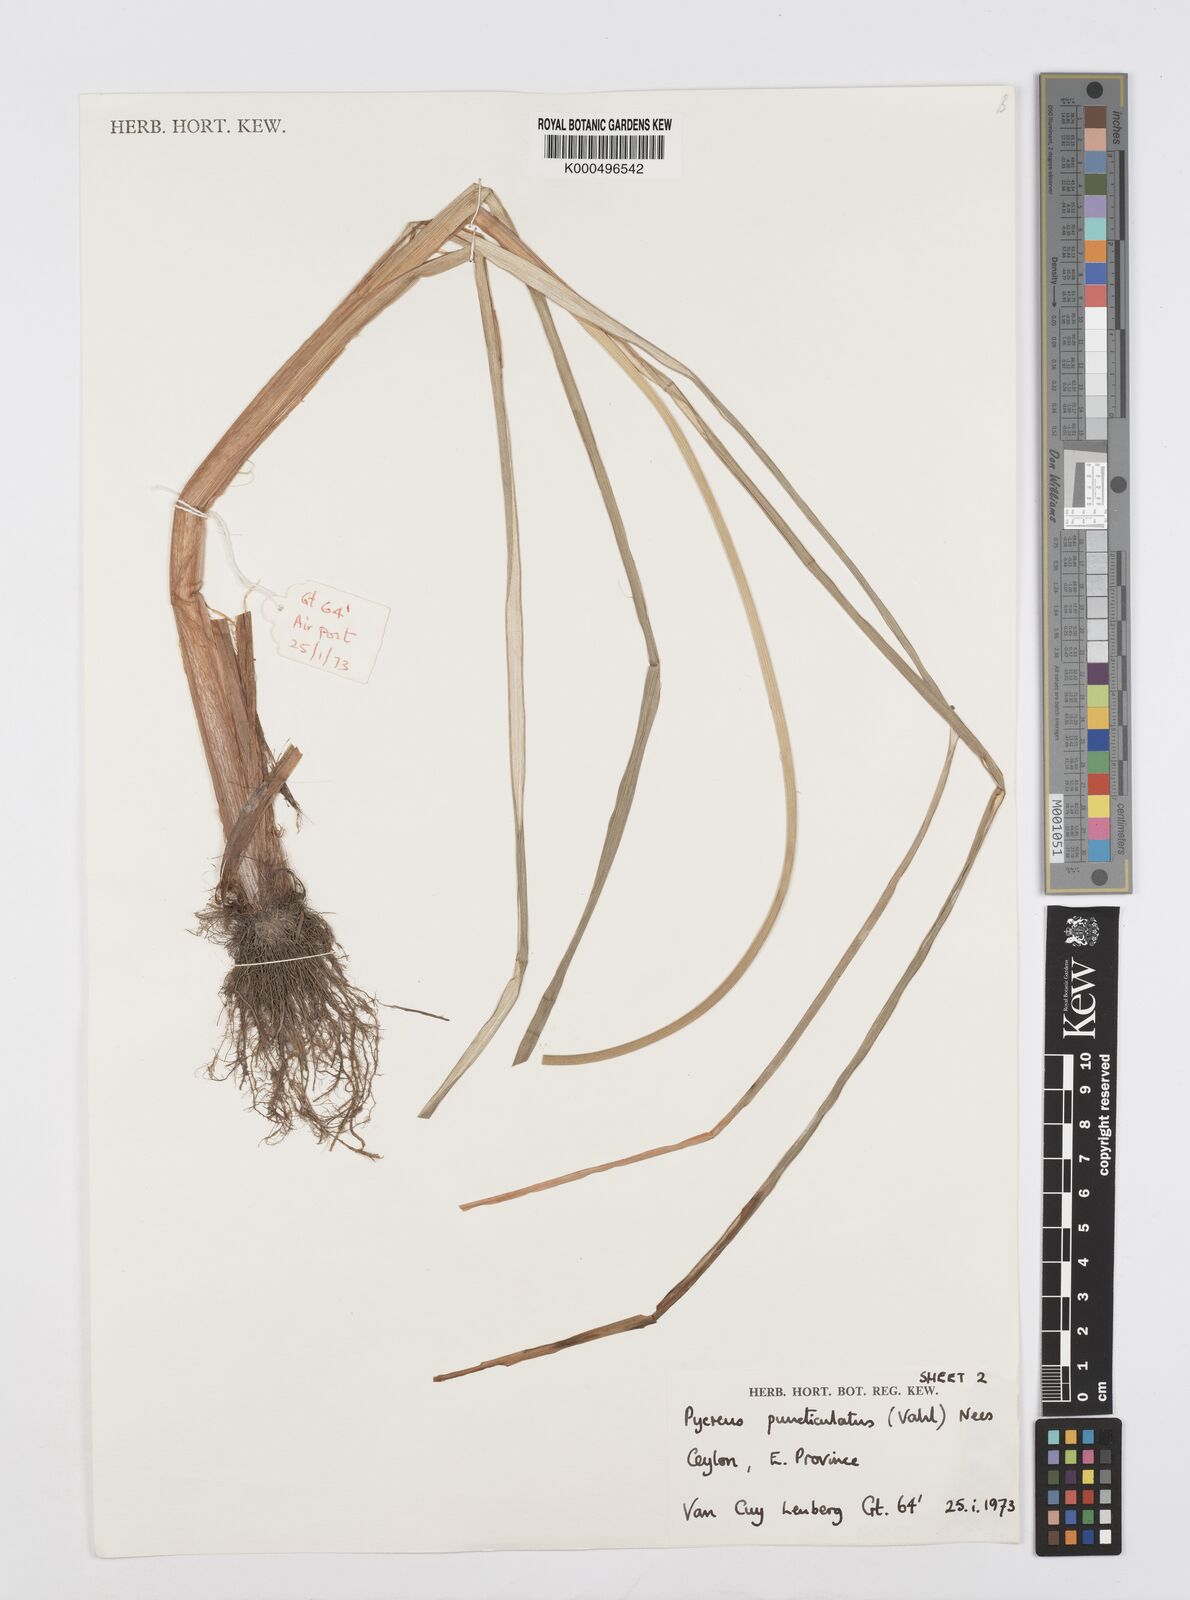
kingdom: Plantae
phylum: Tracheophyta
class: Liliopsida
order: Poales
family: Cyperaceae
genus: Cyperus
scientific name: Cyperus puncticulatus
